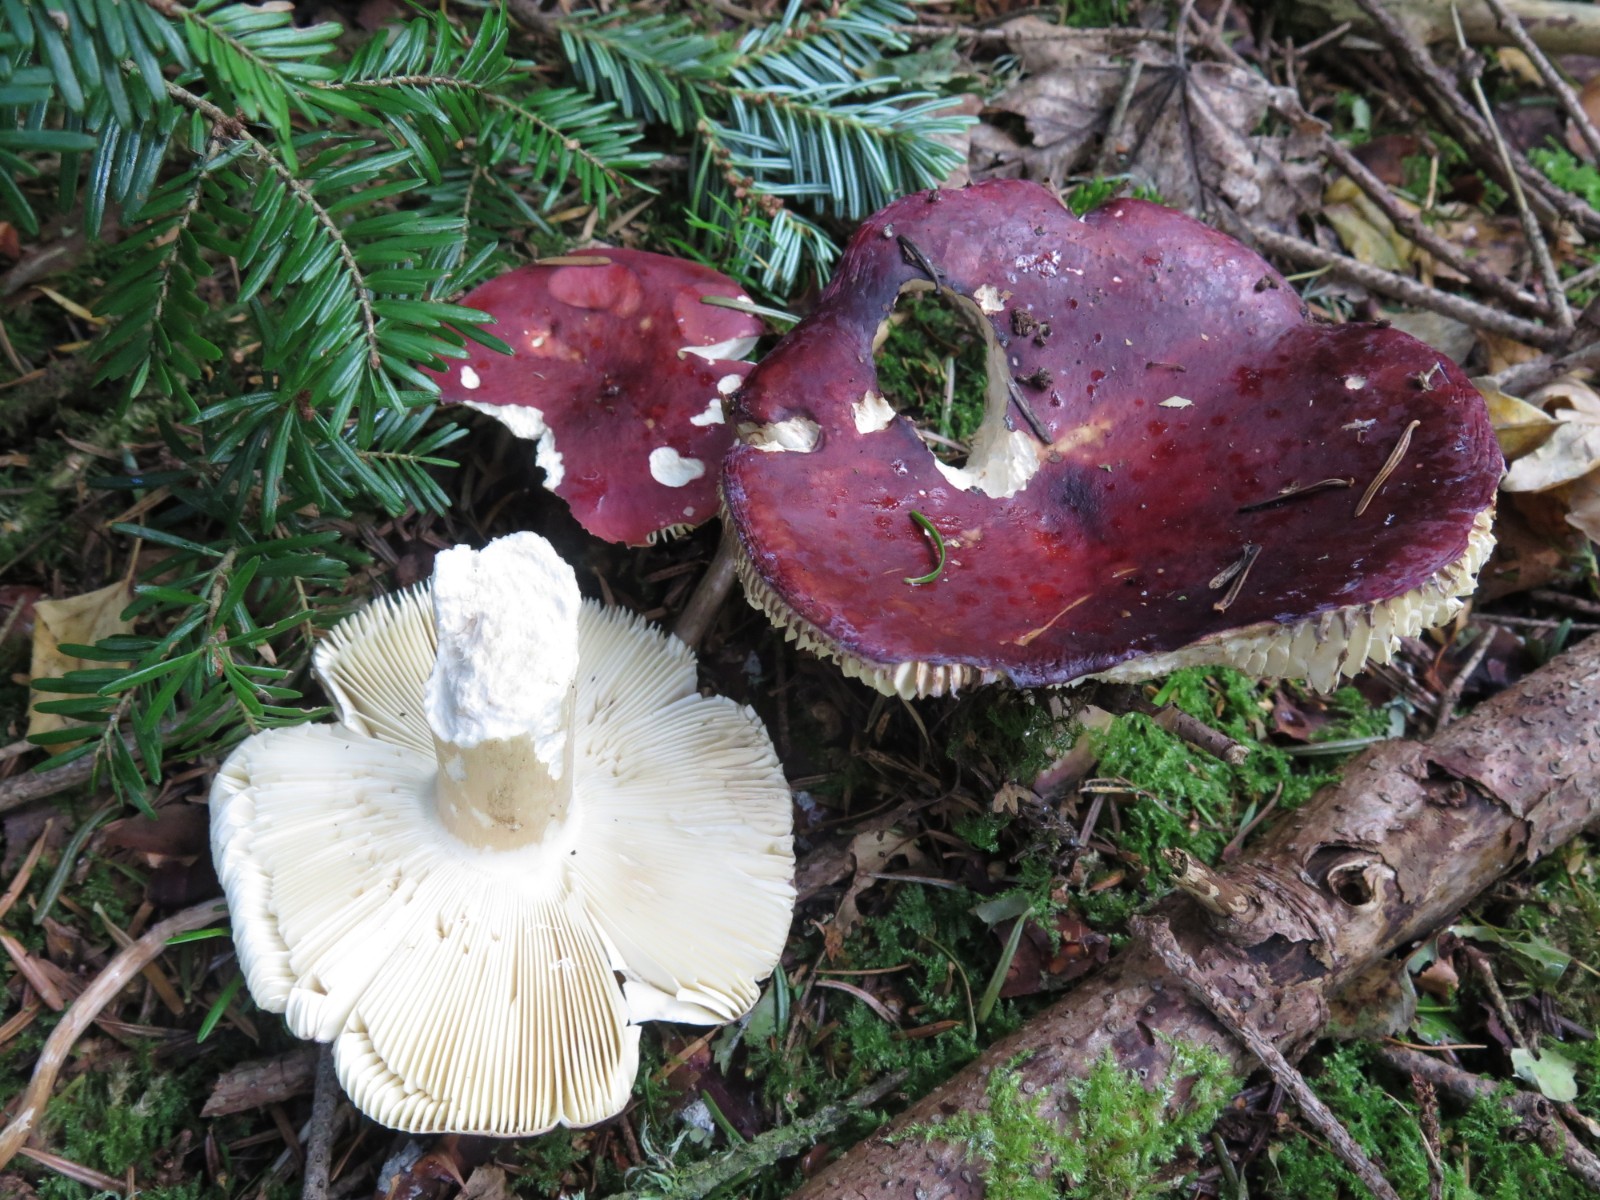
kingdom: Fungi
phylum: Basidiomycota
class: Agaricomycetes
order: Russulales
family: Russulaceae
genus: Russula
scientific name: Russula paludosa
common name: prægtig skørhat
